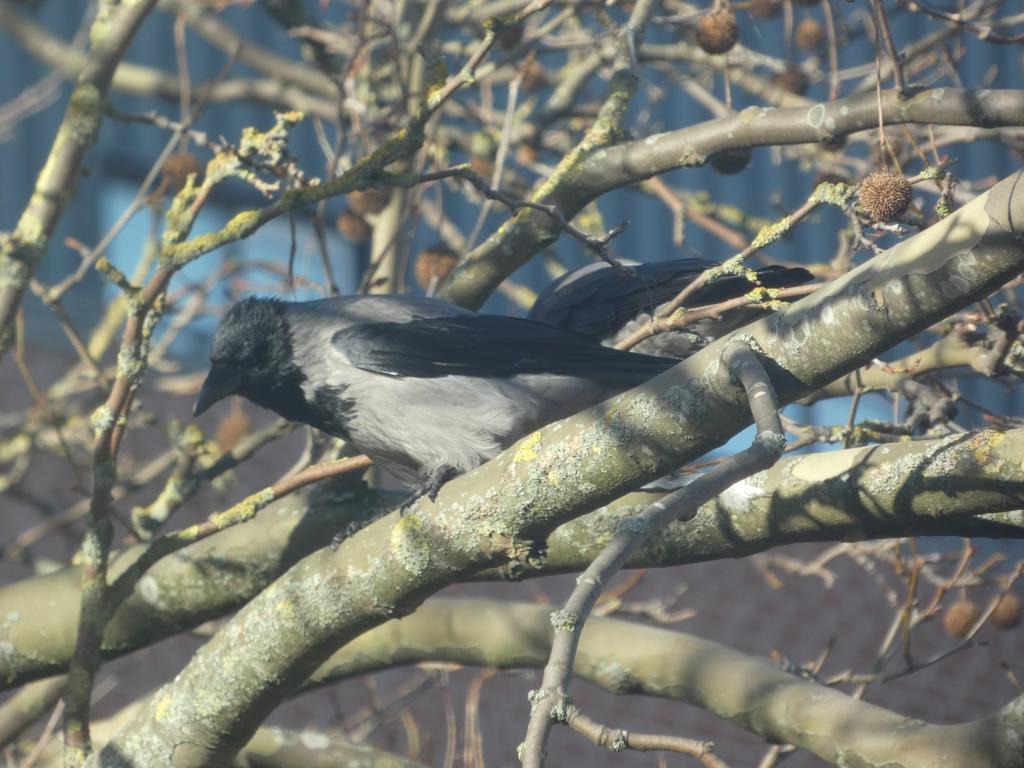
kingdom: Animalia
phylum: Chordata
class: Aves
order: Passeriformes
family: Corvidae
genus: Corvus
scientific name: Corvus cornix
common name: Gråkrage
